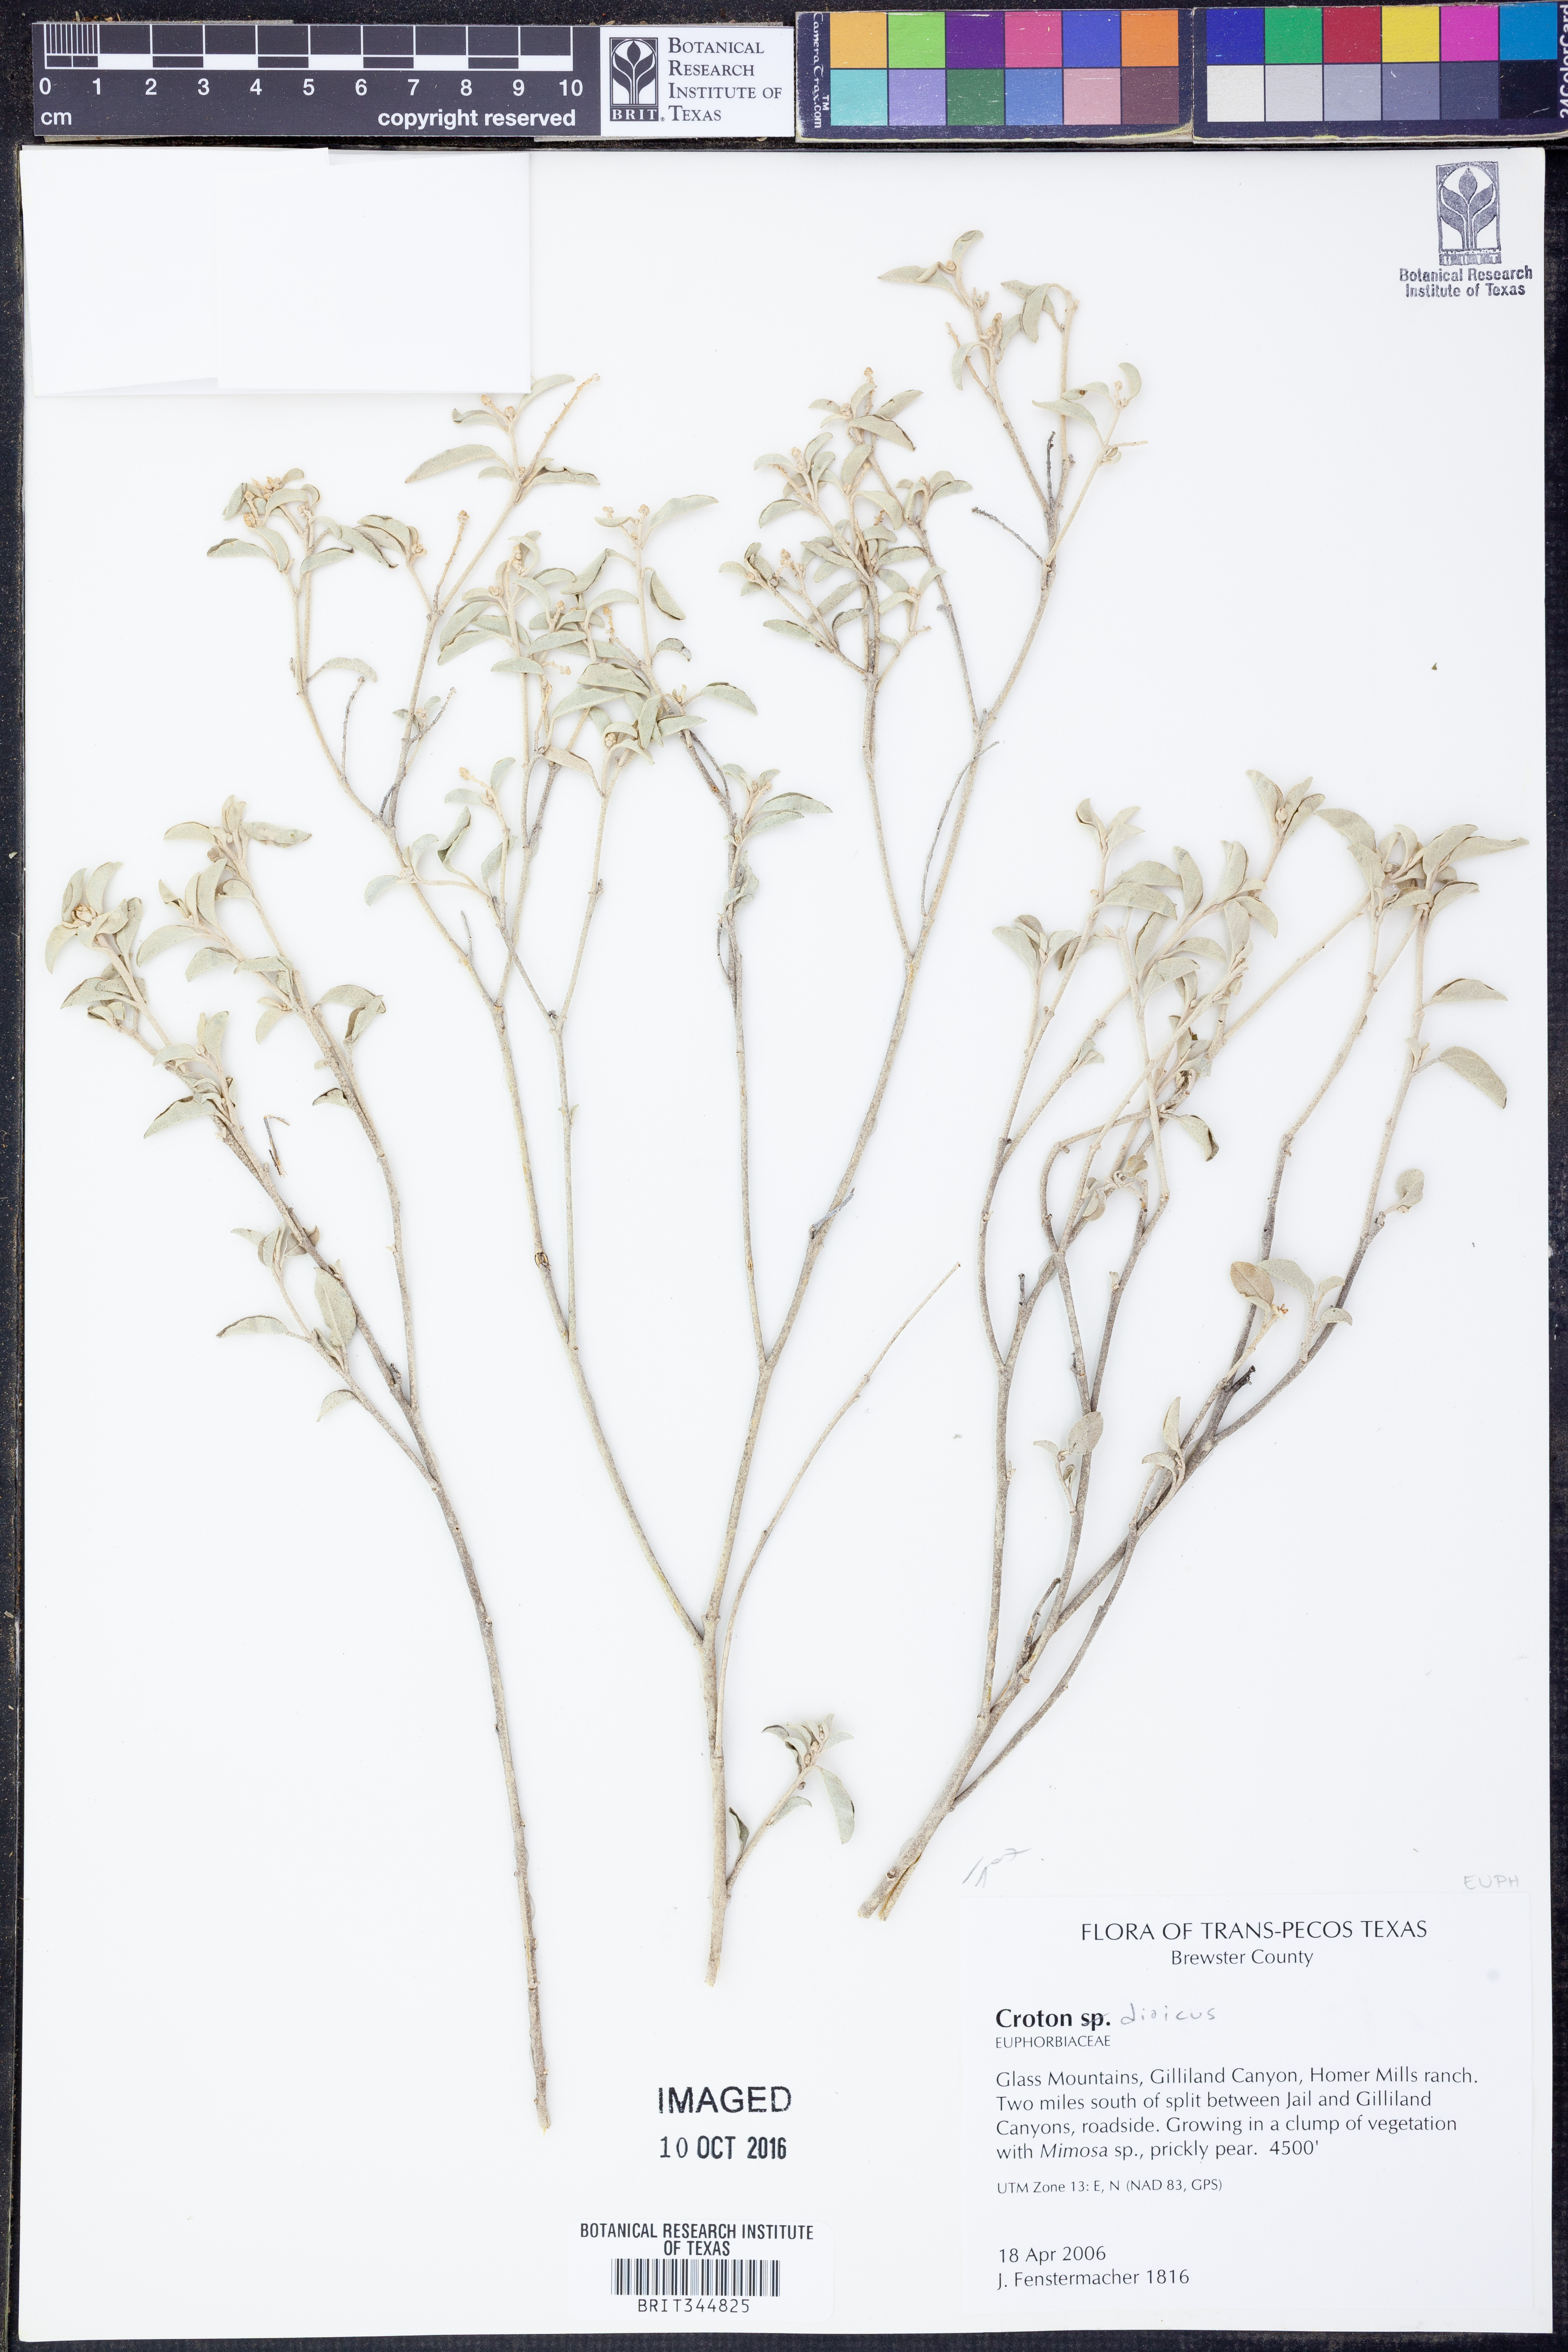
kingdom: Plantae
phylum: Tracheophyta
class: Magnoliopsida
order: Malpighiales
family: Euphorbiaceae
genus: Croton
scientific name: Croton dioicus
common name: Grassland croton
